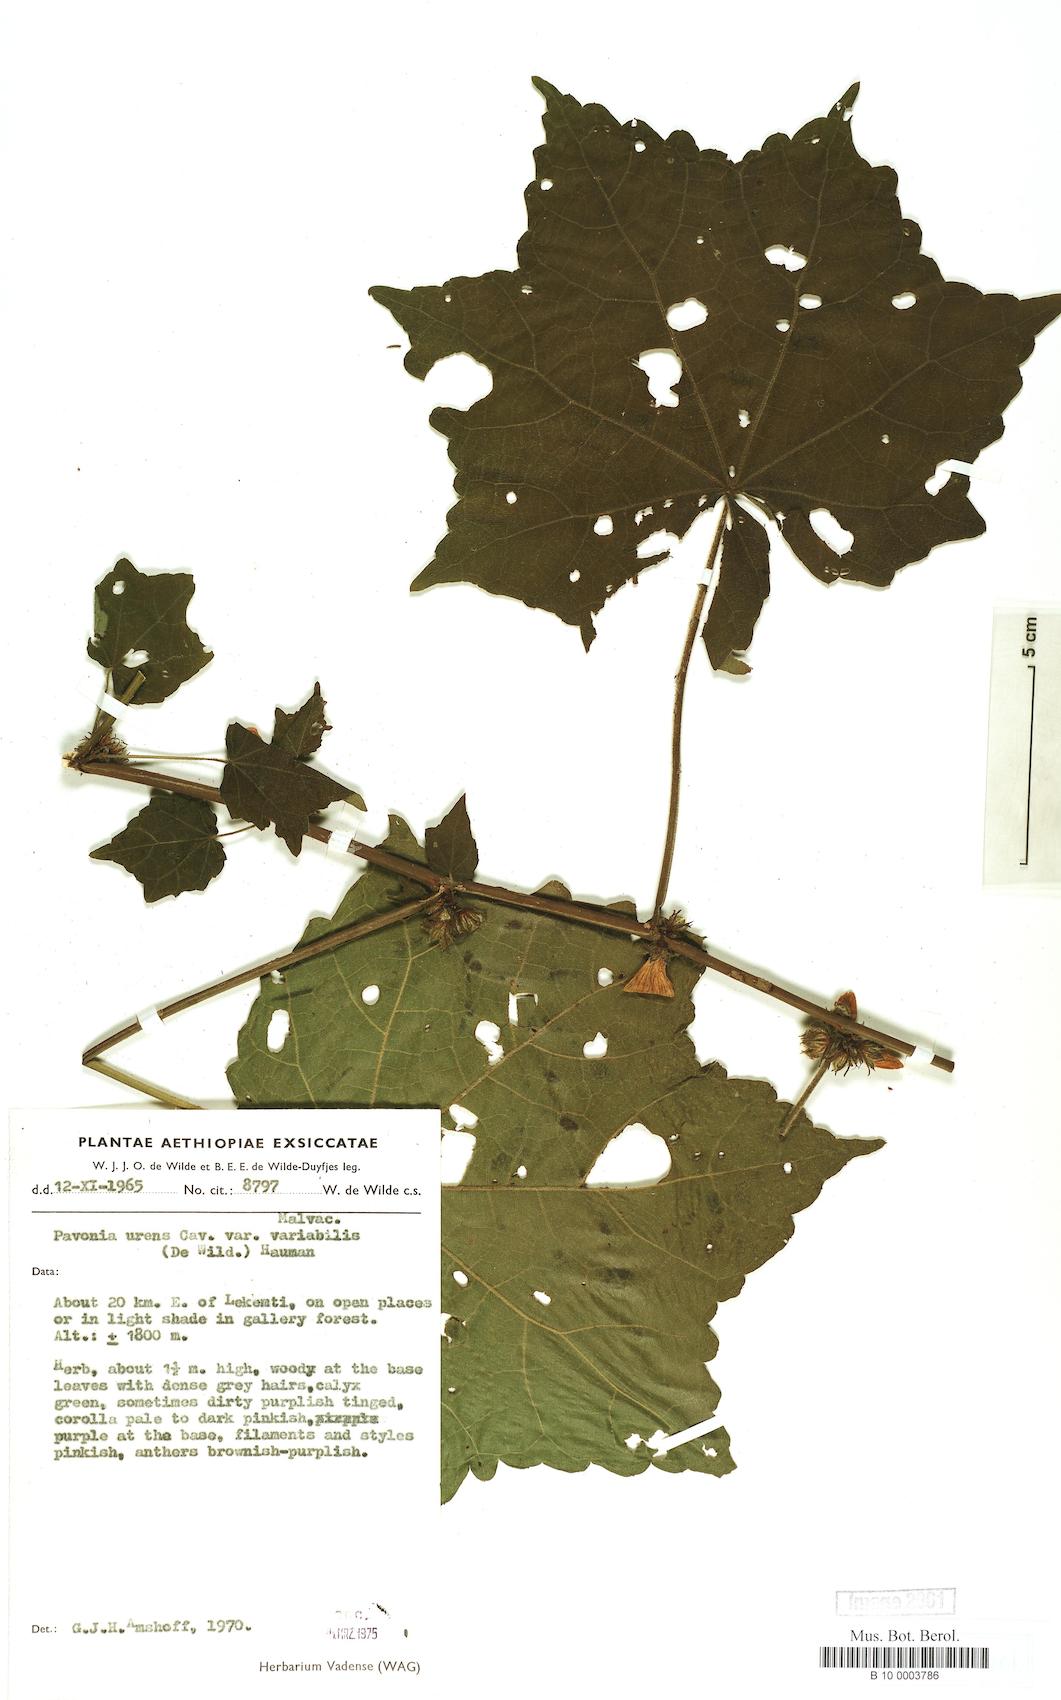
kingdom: Plantae
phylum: Tracheophyta
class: Magnoliopsida
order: Malvales
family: Malvaceae
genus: Pavonia
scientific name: Pavonia urens
